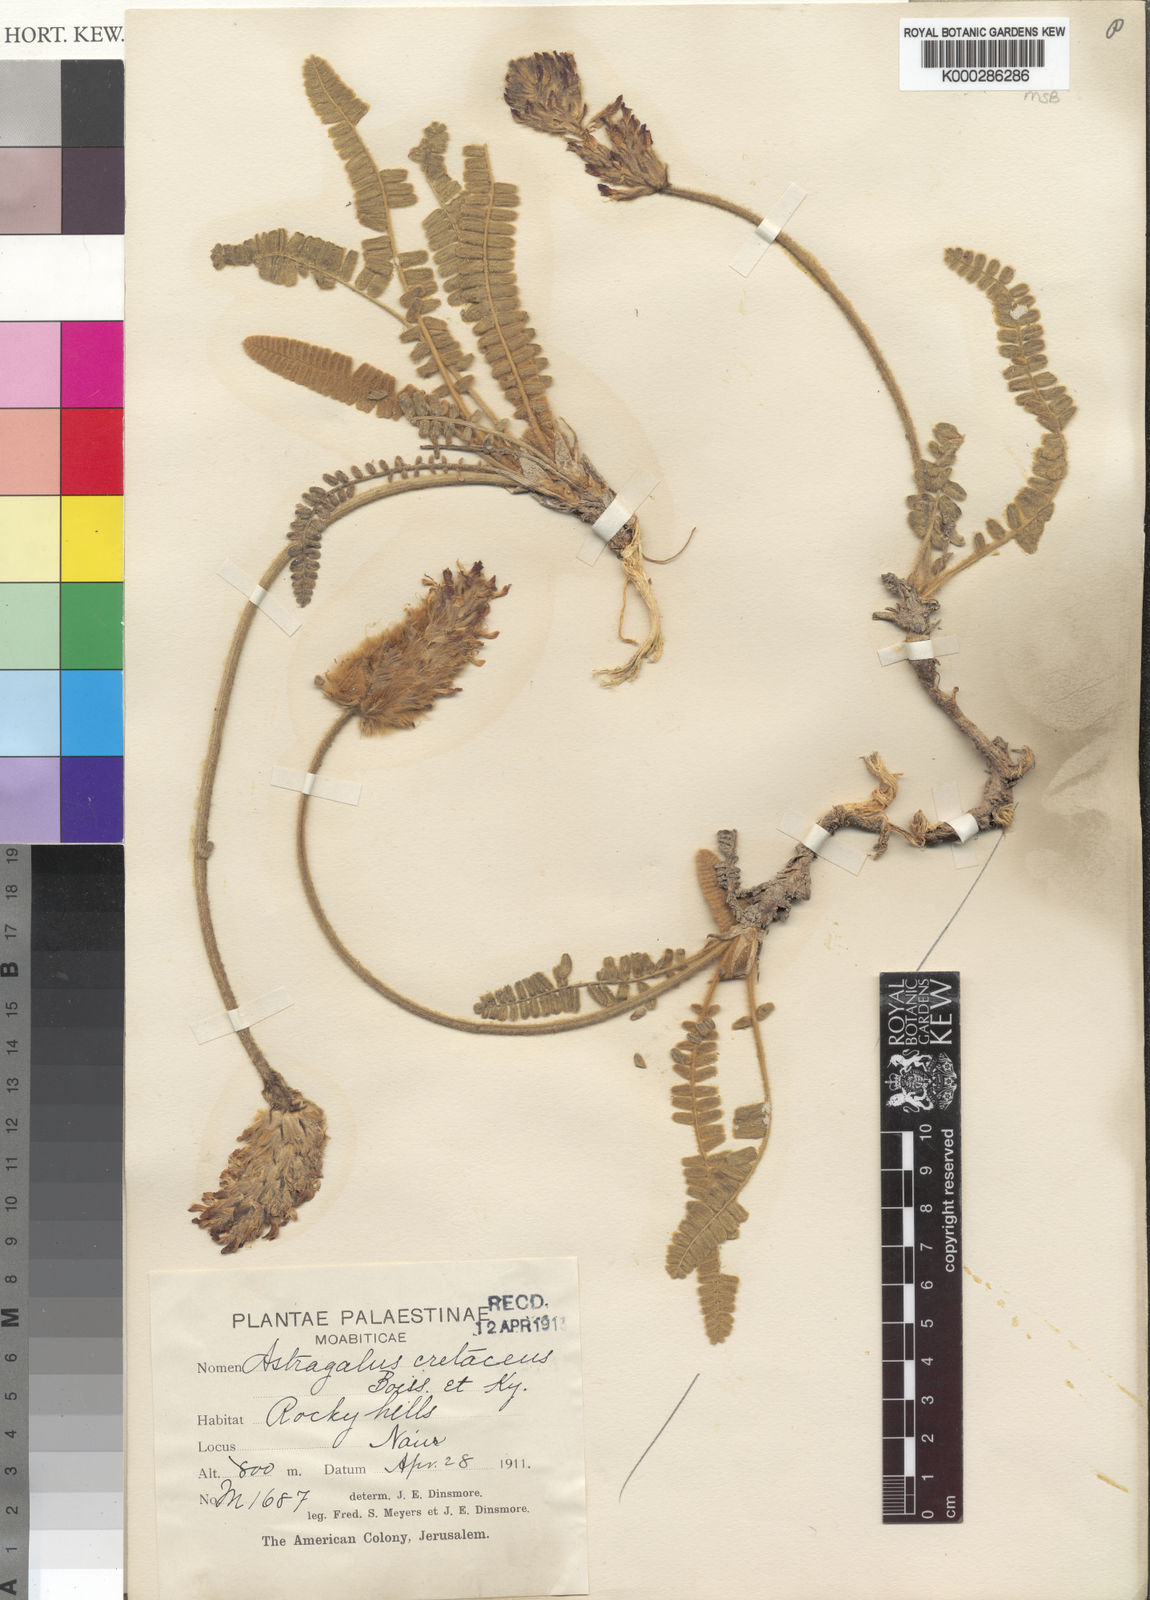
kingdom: Plantae
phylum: Tracheophyta
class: Magnoliopsida
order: Fabales
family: Fabaceae
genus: Astragalus
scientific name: Astragalus cretaceus
